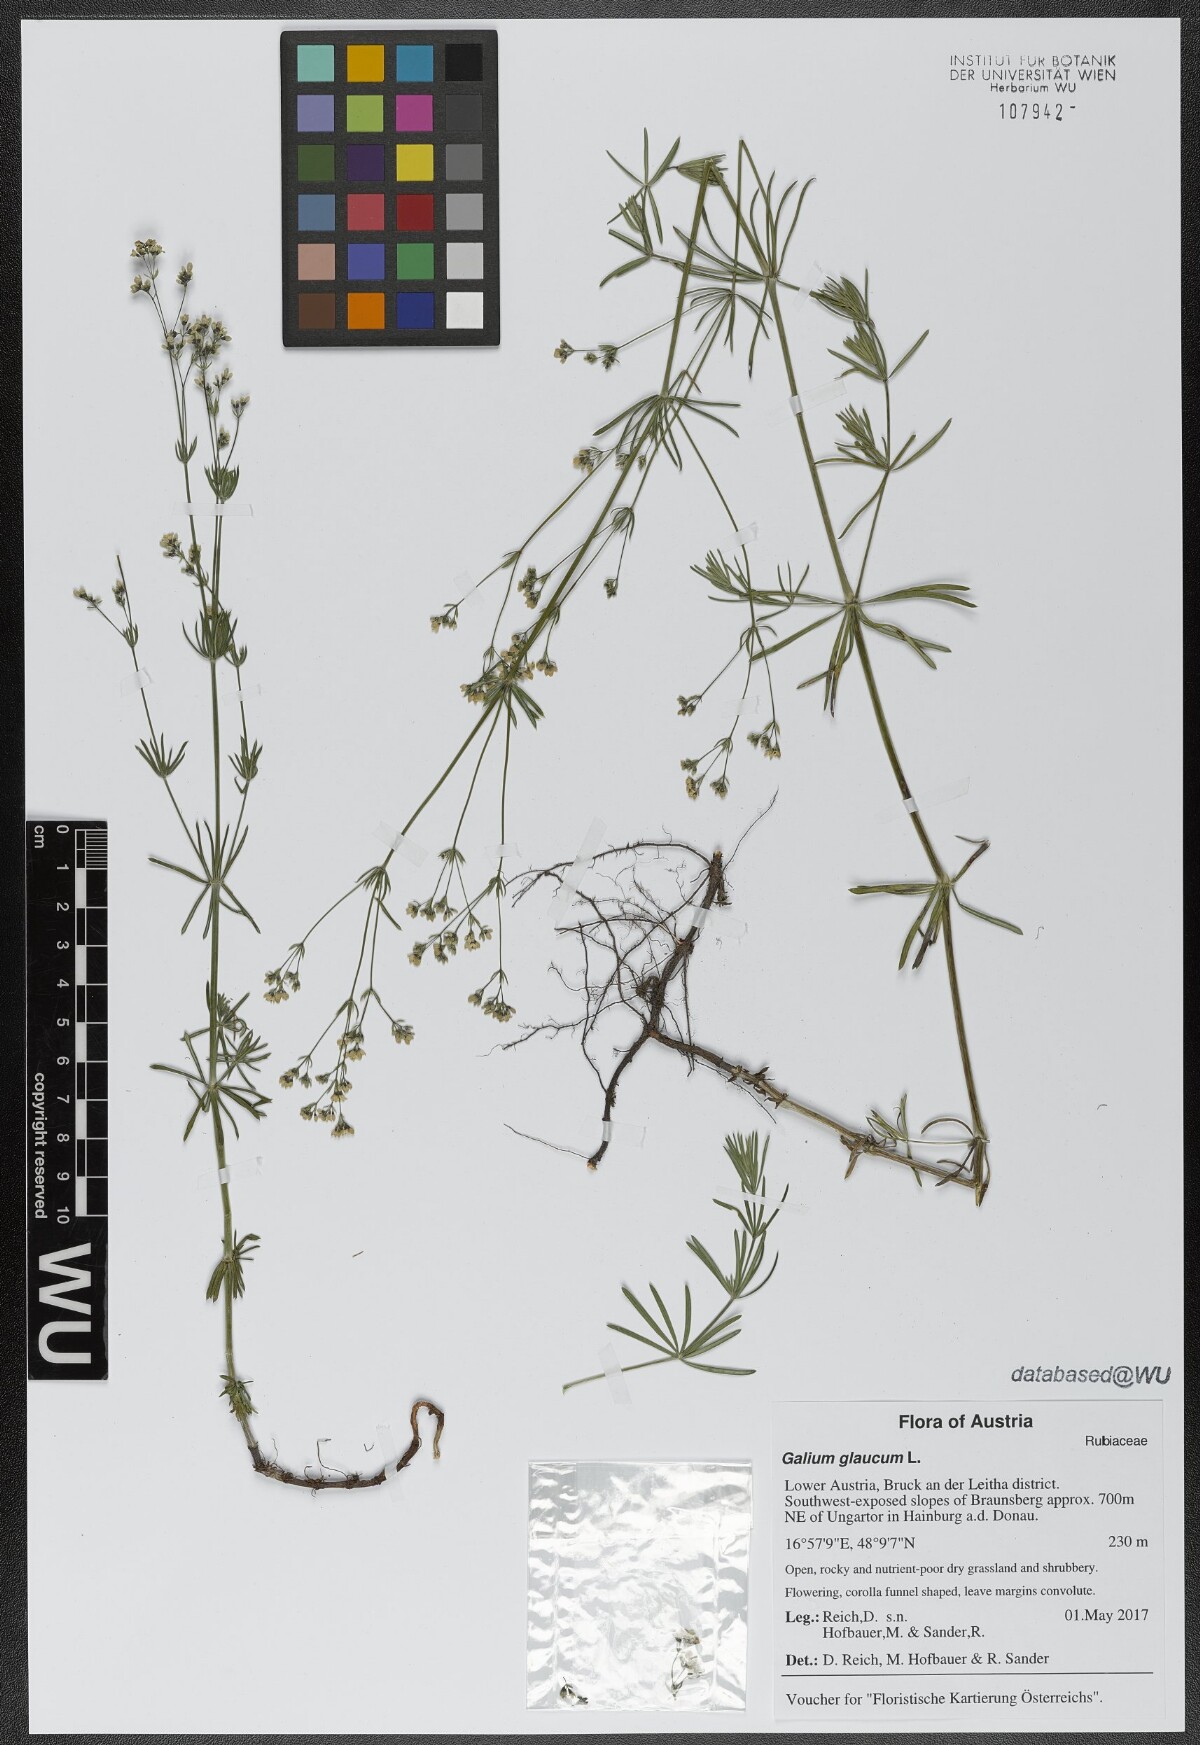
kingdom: Plantae
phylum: Tracheophyta
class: Magnoliopsida
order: Gentianales
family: Rubiaceae
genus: Galium
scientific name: Galium glaucum
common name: Waxy bedstraw
